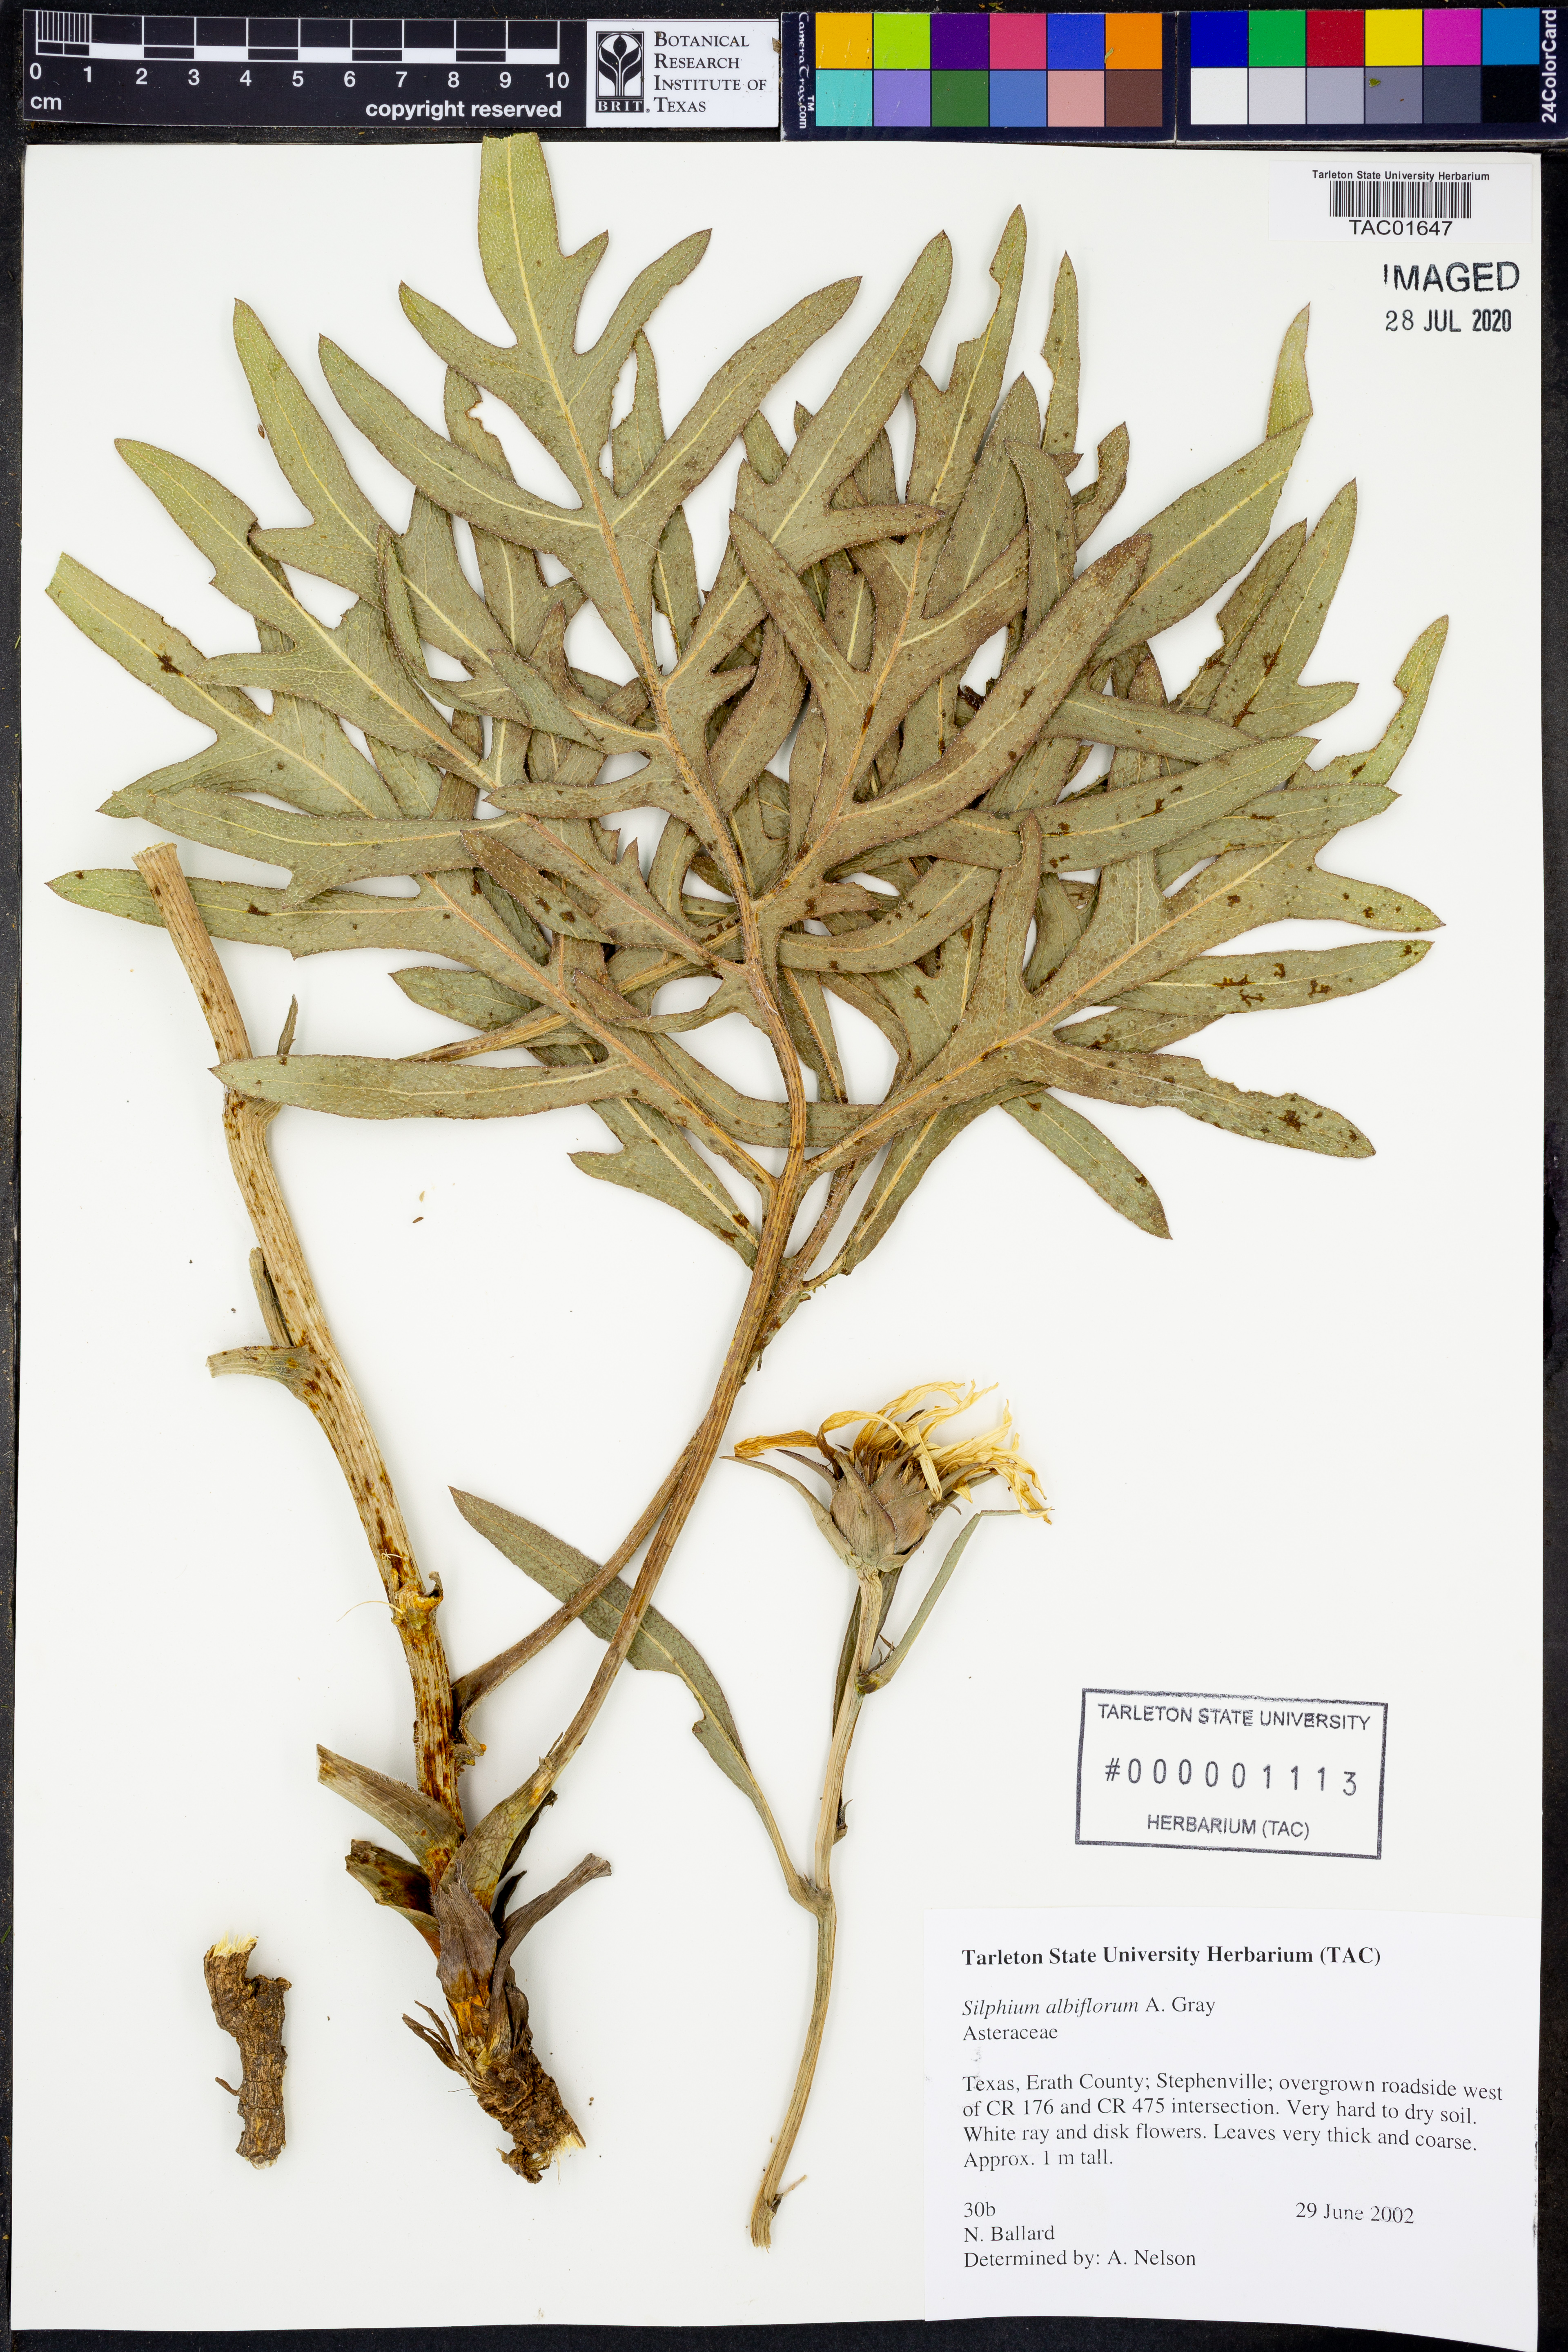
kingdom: Plantae
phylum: Tracheophyta
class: Magnoliopsida
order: Asterales
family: Asteraceae
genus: Silphium
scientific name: Silphium albiflorum
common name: White rosinweed
